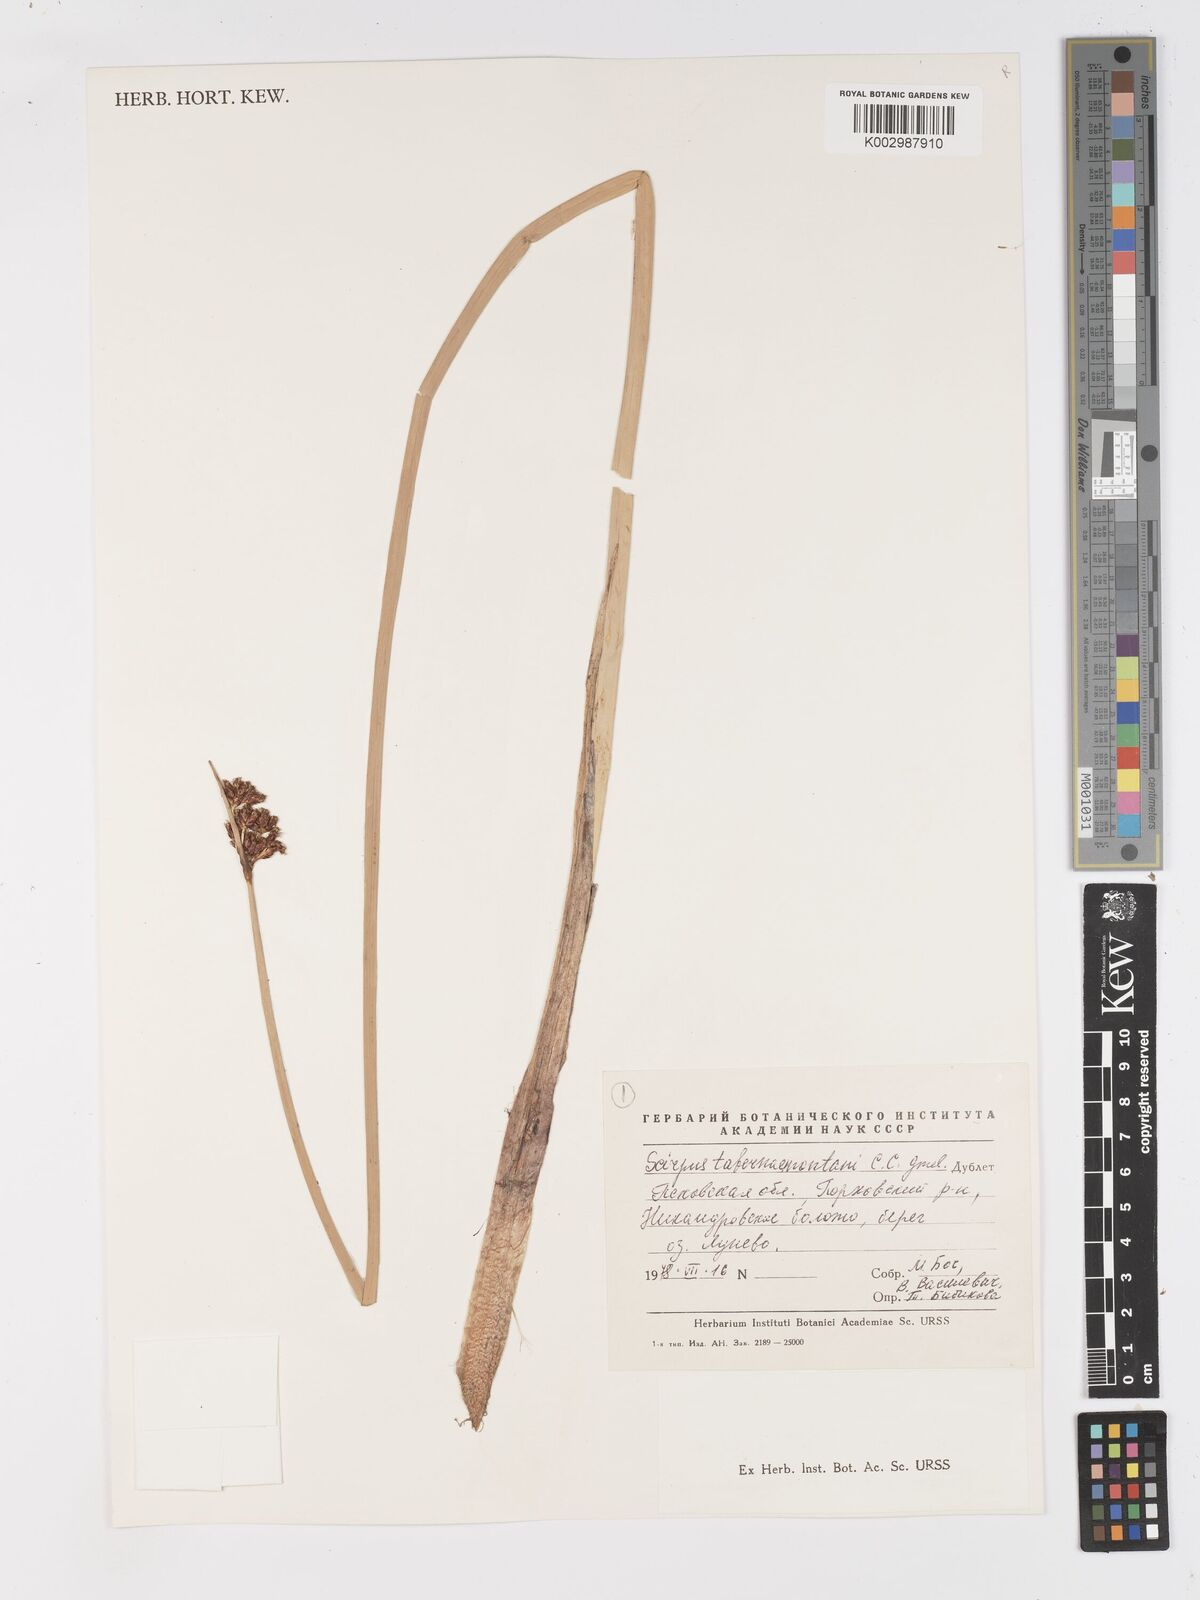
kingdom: Plantae
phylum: Tracheophyta
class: Liliopsida
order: Poales
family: Cyperaceae
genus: Schoenoplectus
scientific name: Schoenoplectus tabernaemontani
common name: Grey club-rush
